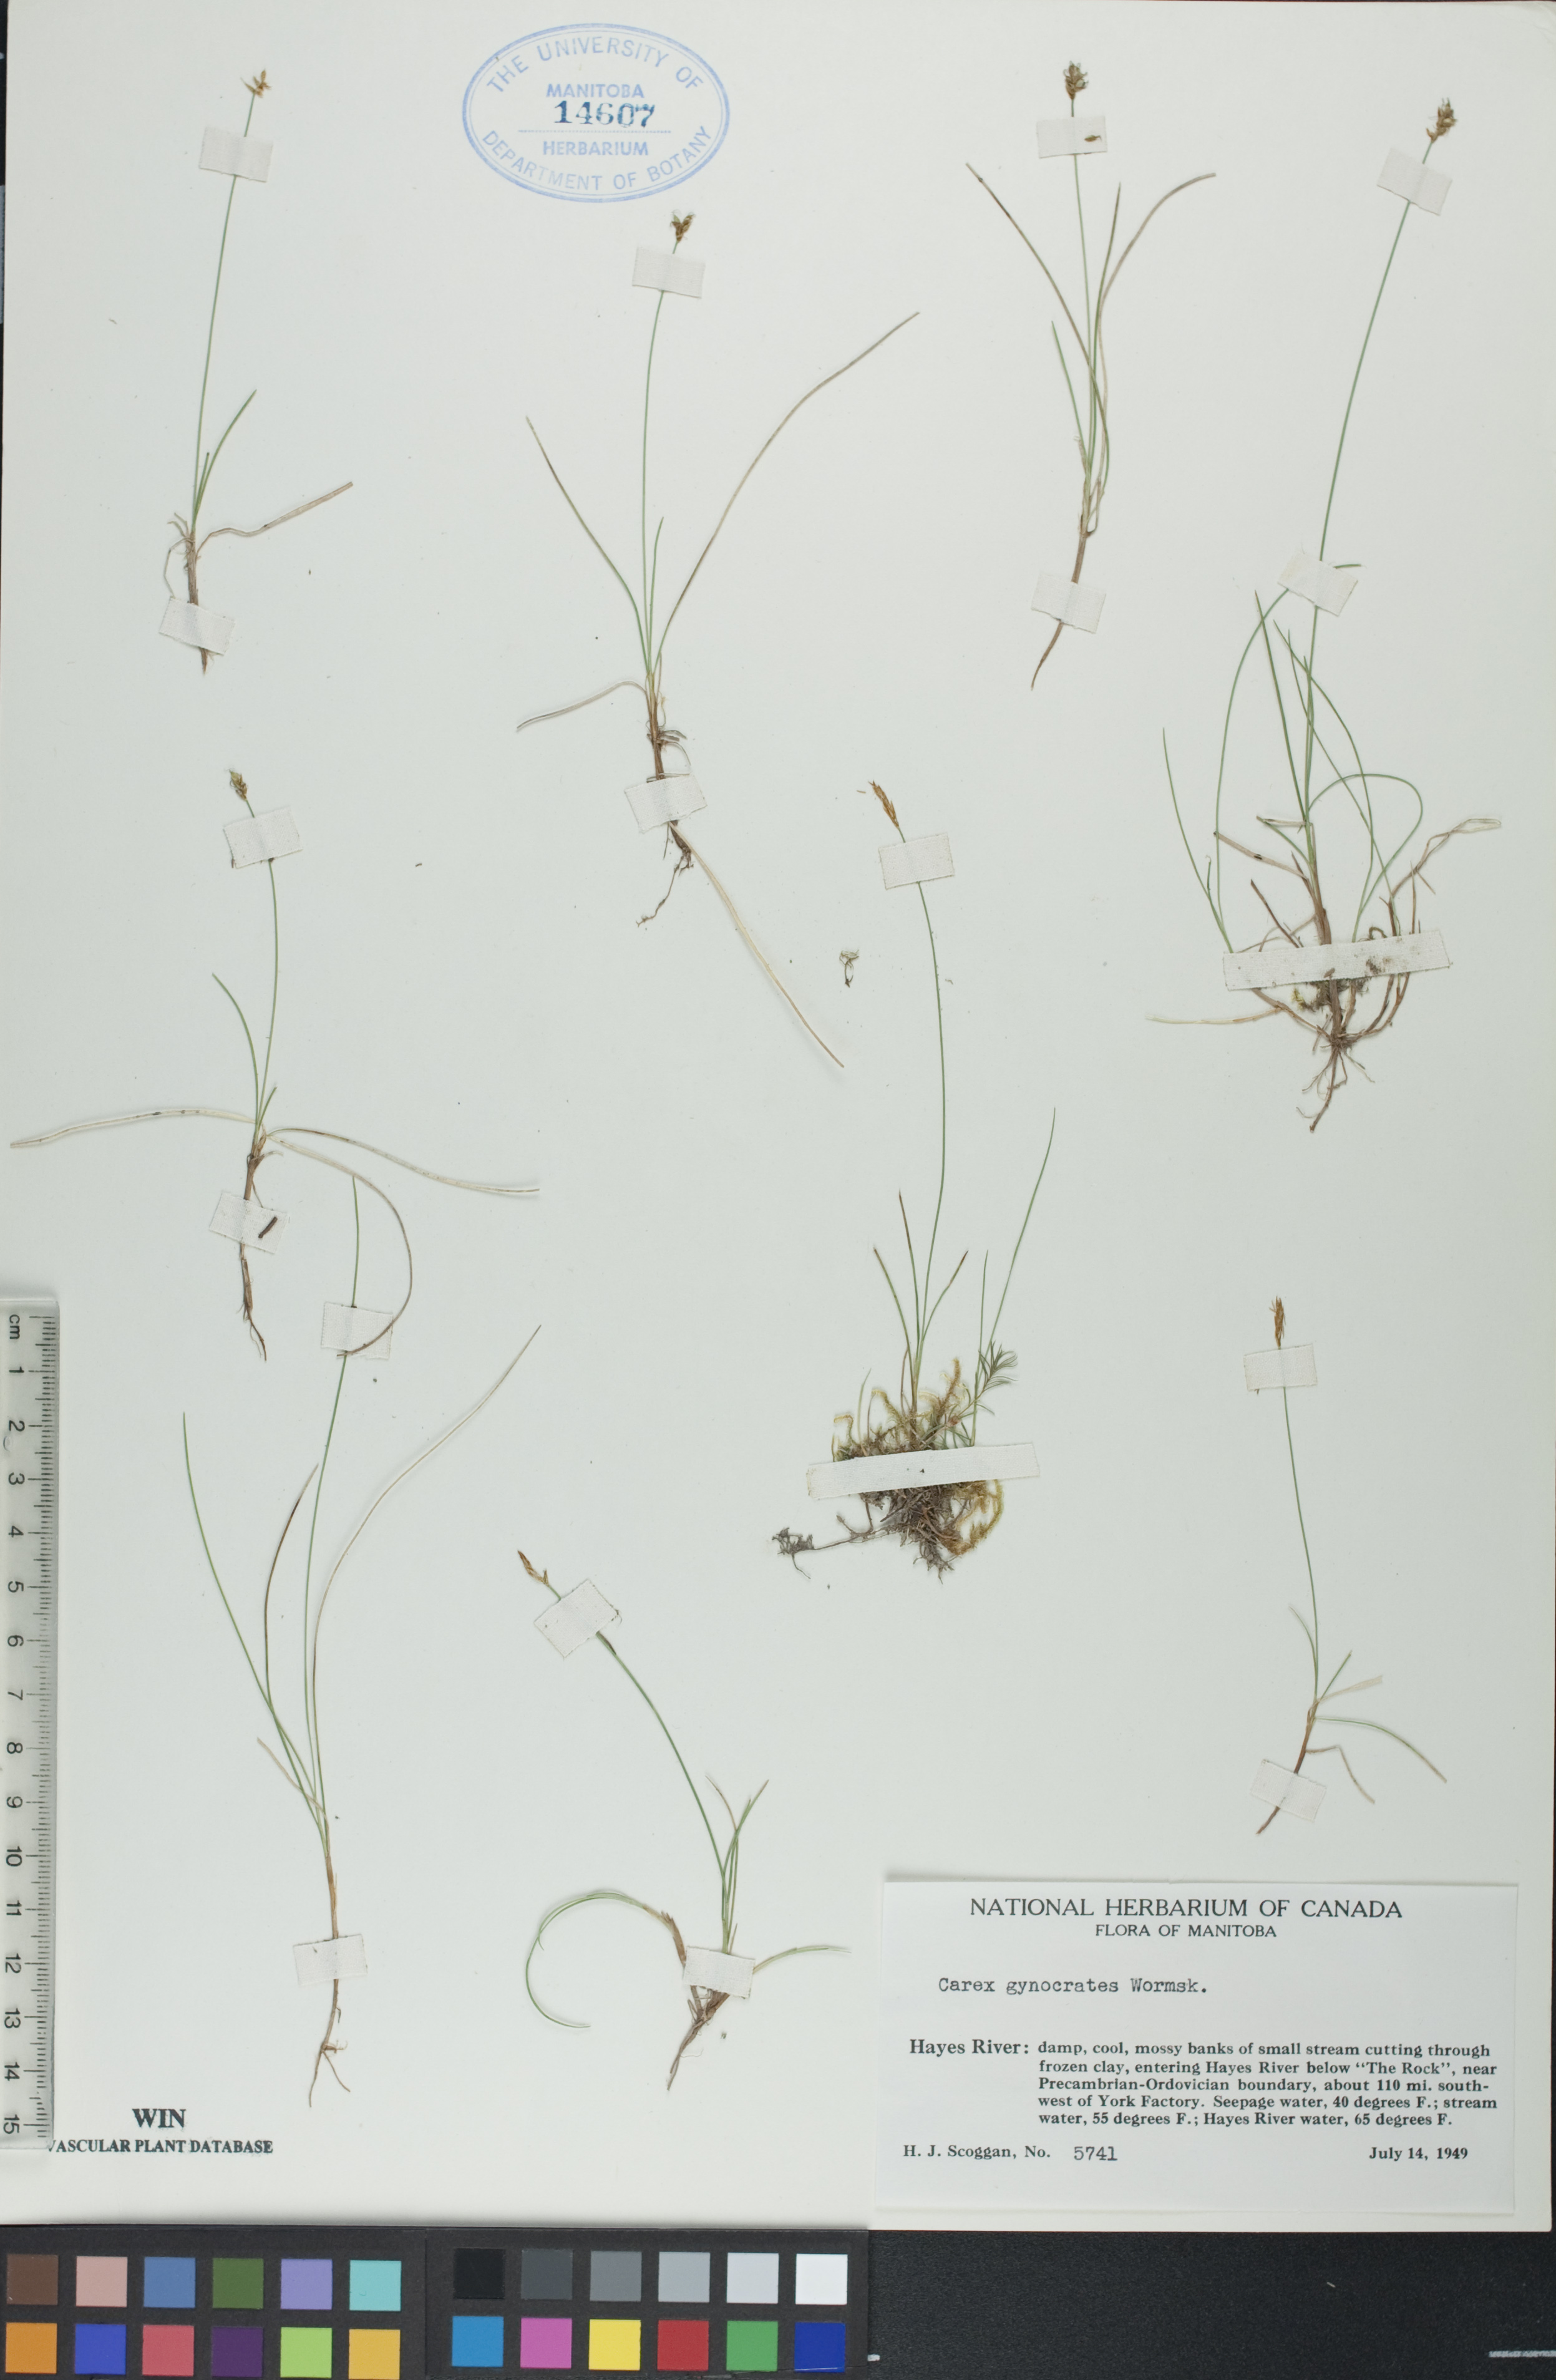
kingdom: Plantae
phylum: Tracheophyta
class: Liliopsida
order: Poales
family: Cyperaceae
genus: Carex
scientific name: Carex nardina
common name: Nard sedge
